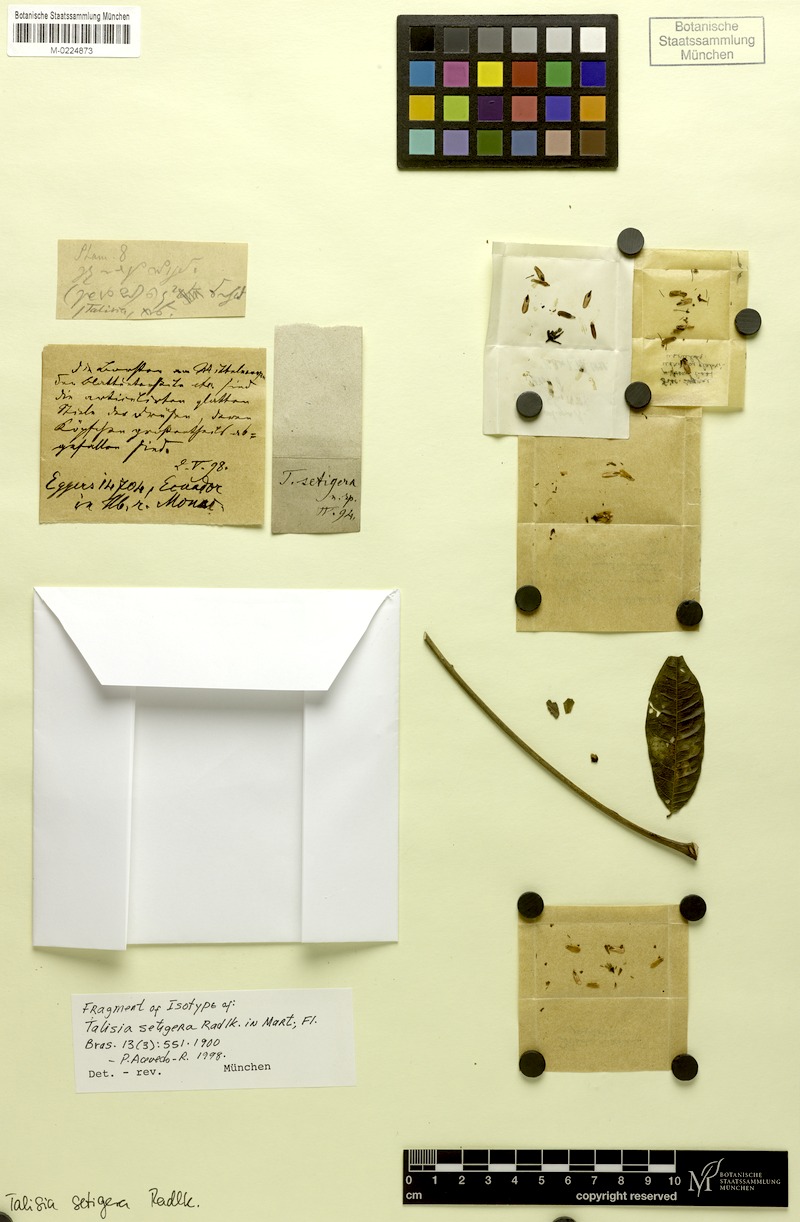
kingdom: Plantae
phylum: Tracheophyta
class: Magnoliopsida
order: Sapindales
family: Sapindaceae
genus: Talisia
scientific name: Talisia setigera
